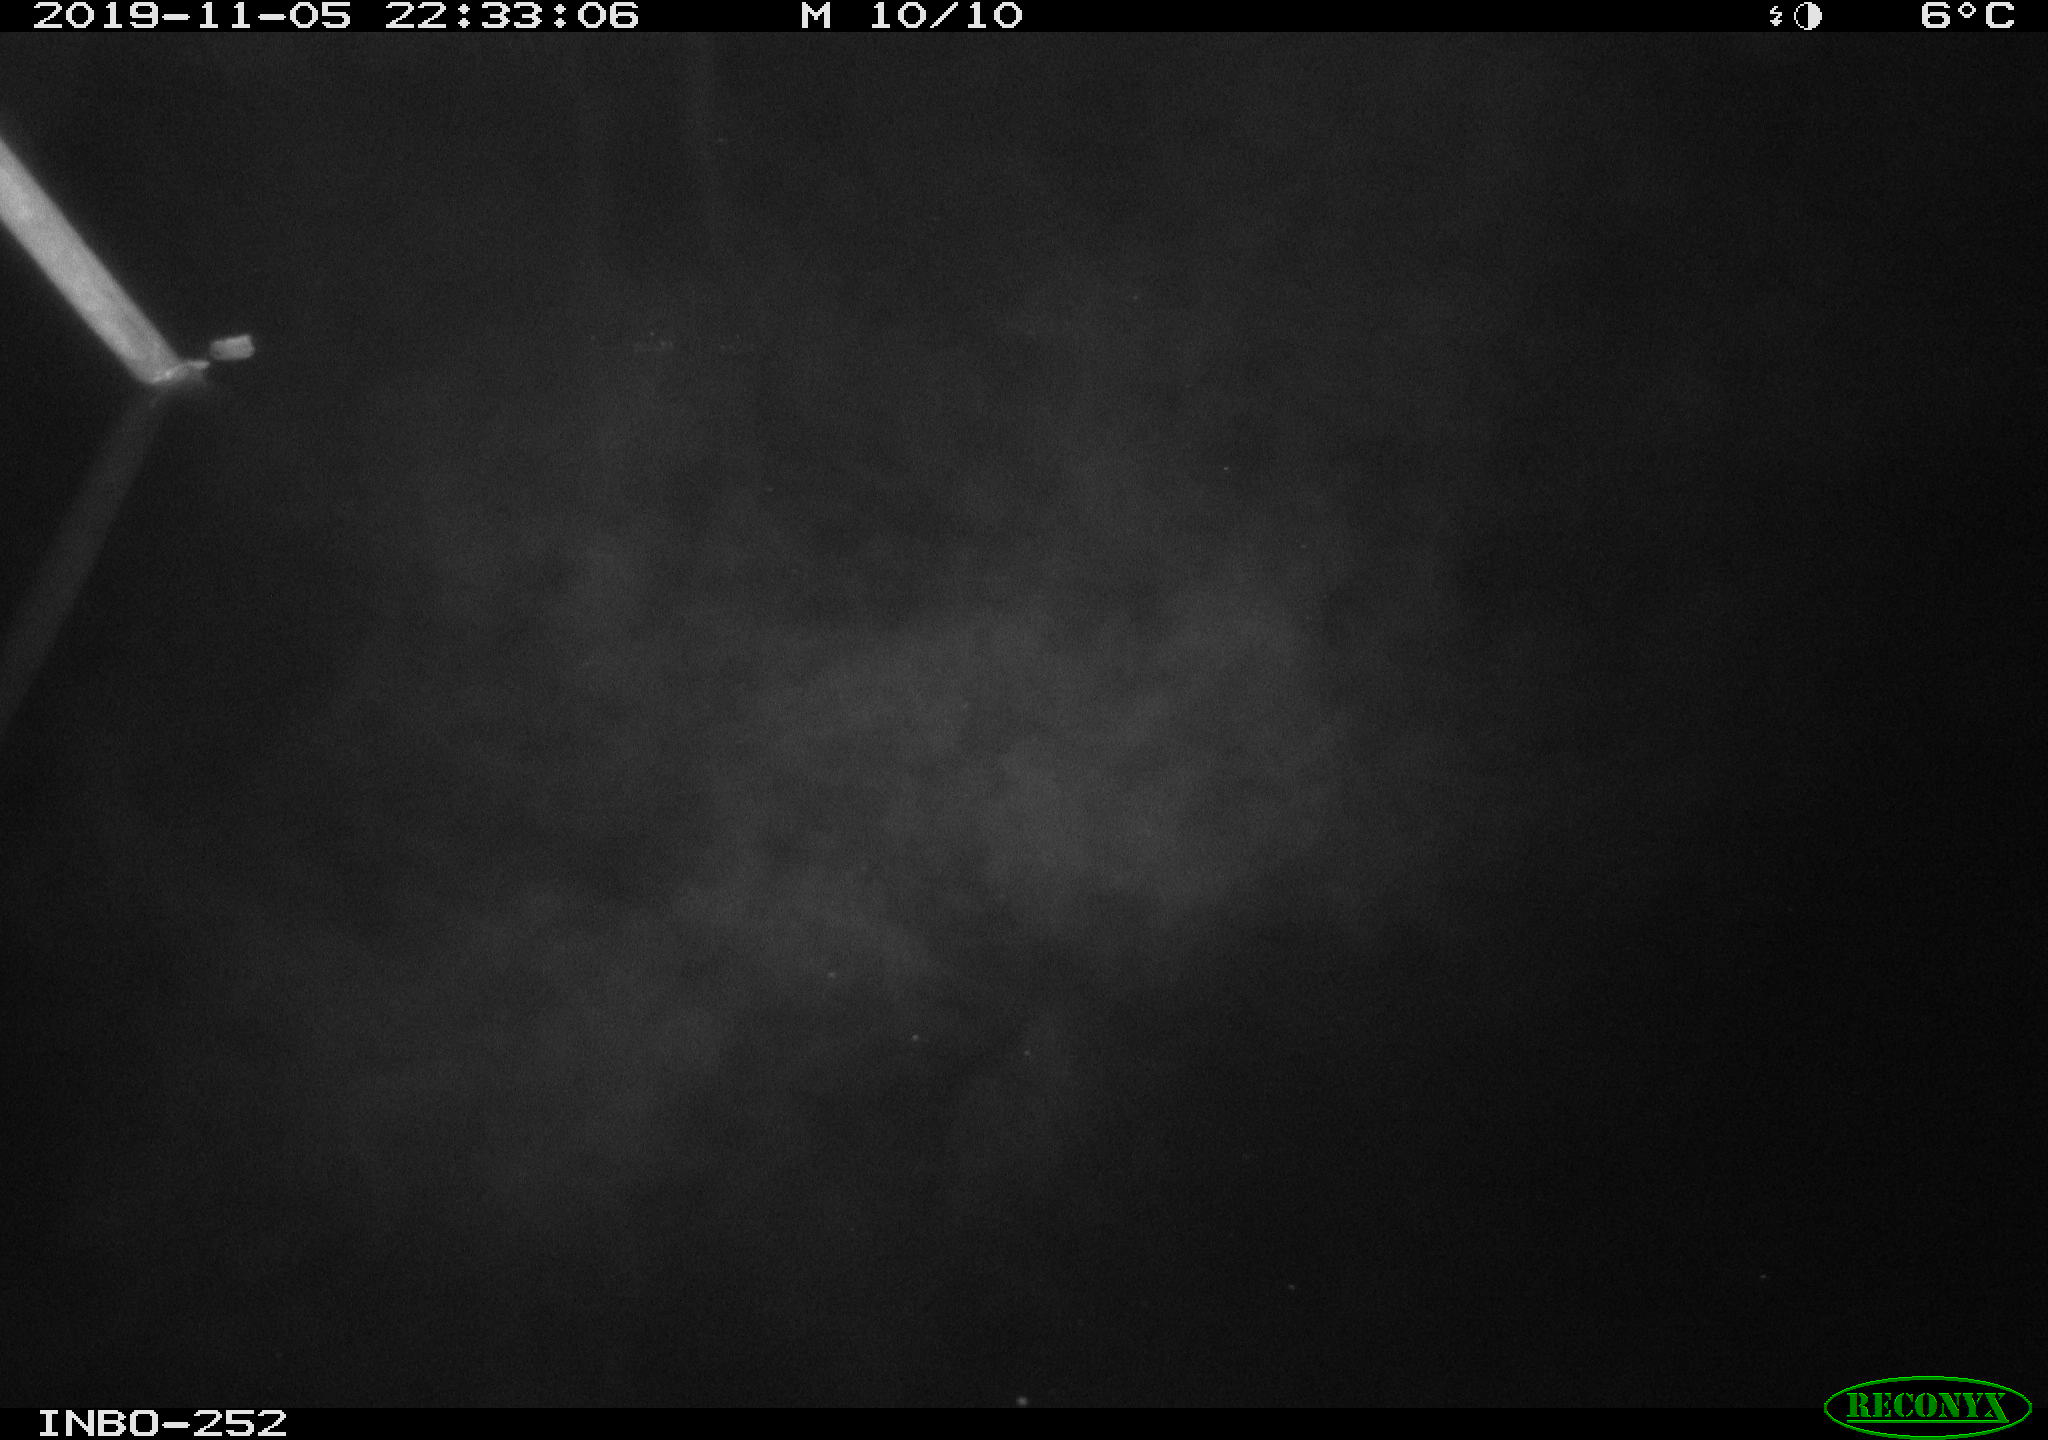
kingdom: Animalia
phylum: Chordata
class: Aves
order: Anseriformes
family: Anatidae
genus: Anas
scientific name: Anas platyrhynchos
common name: Mallard
